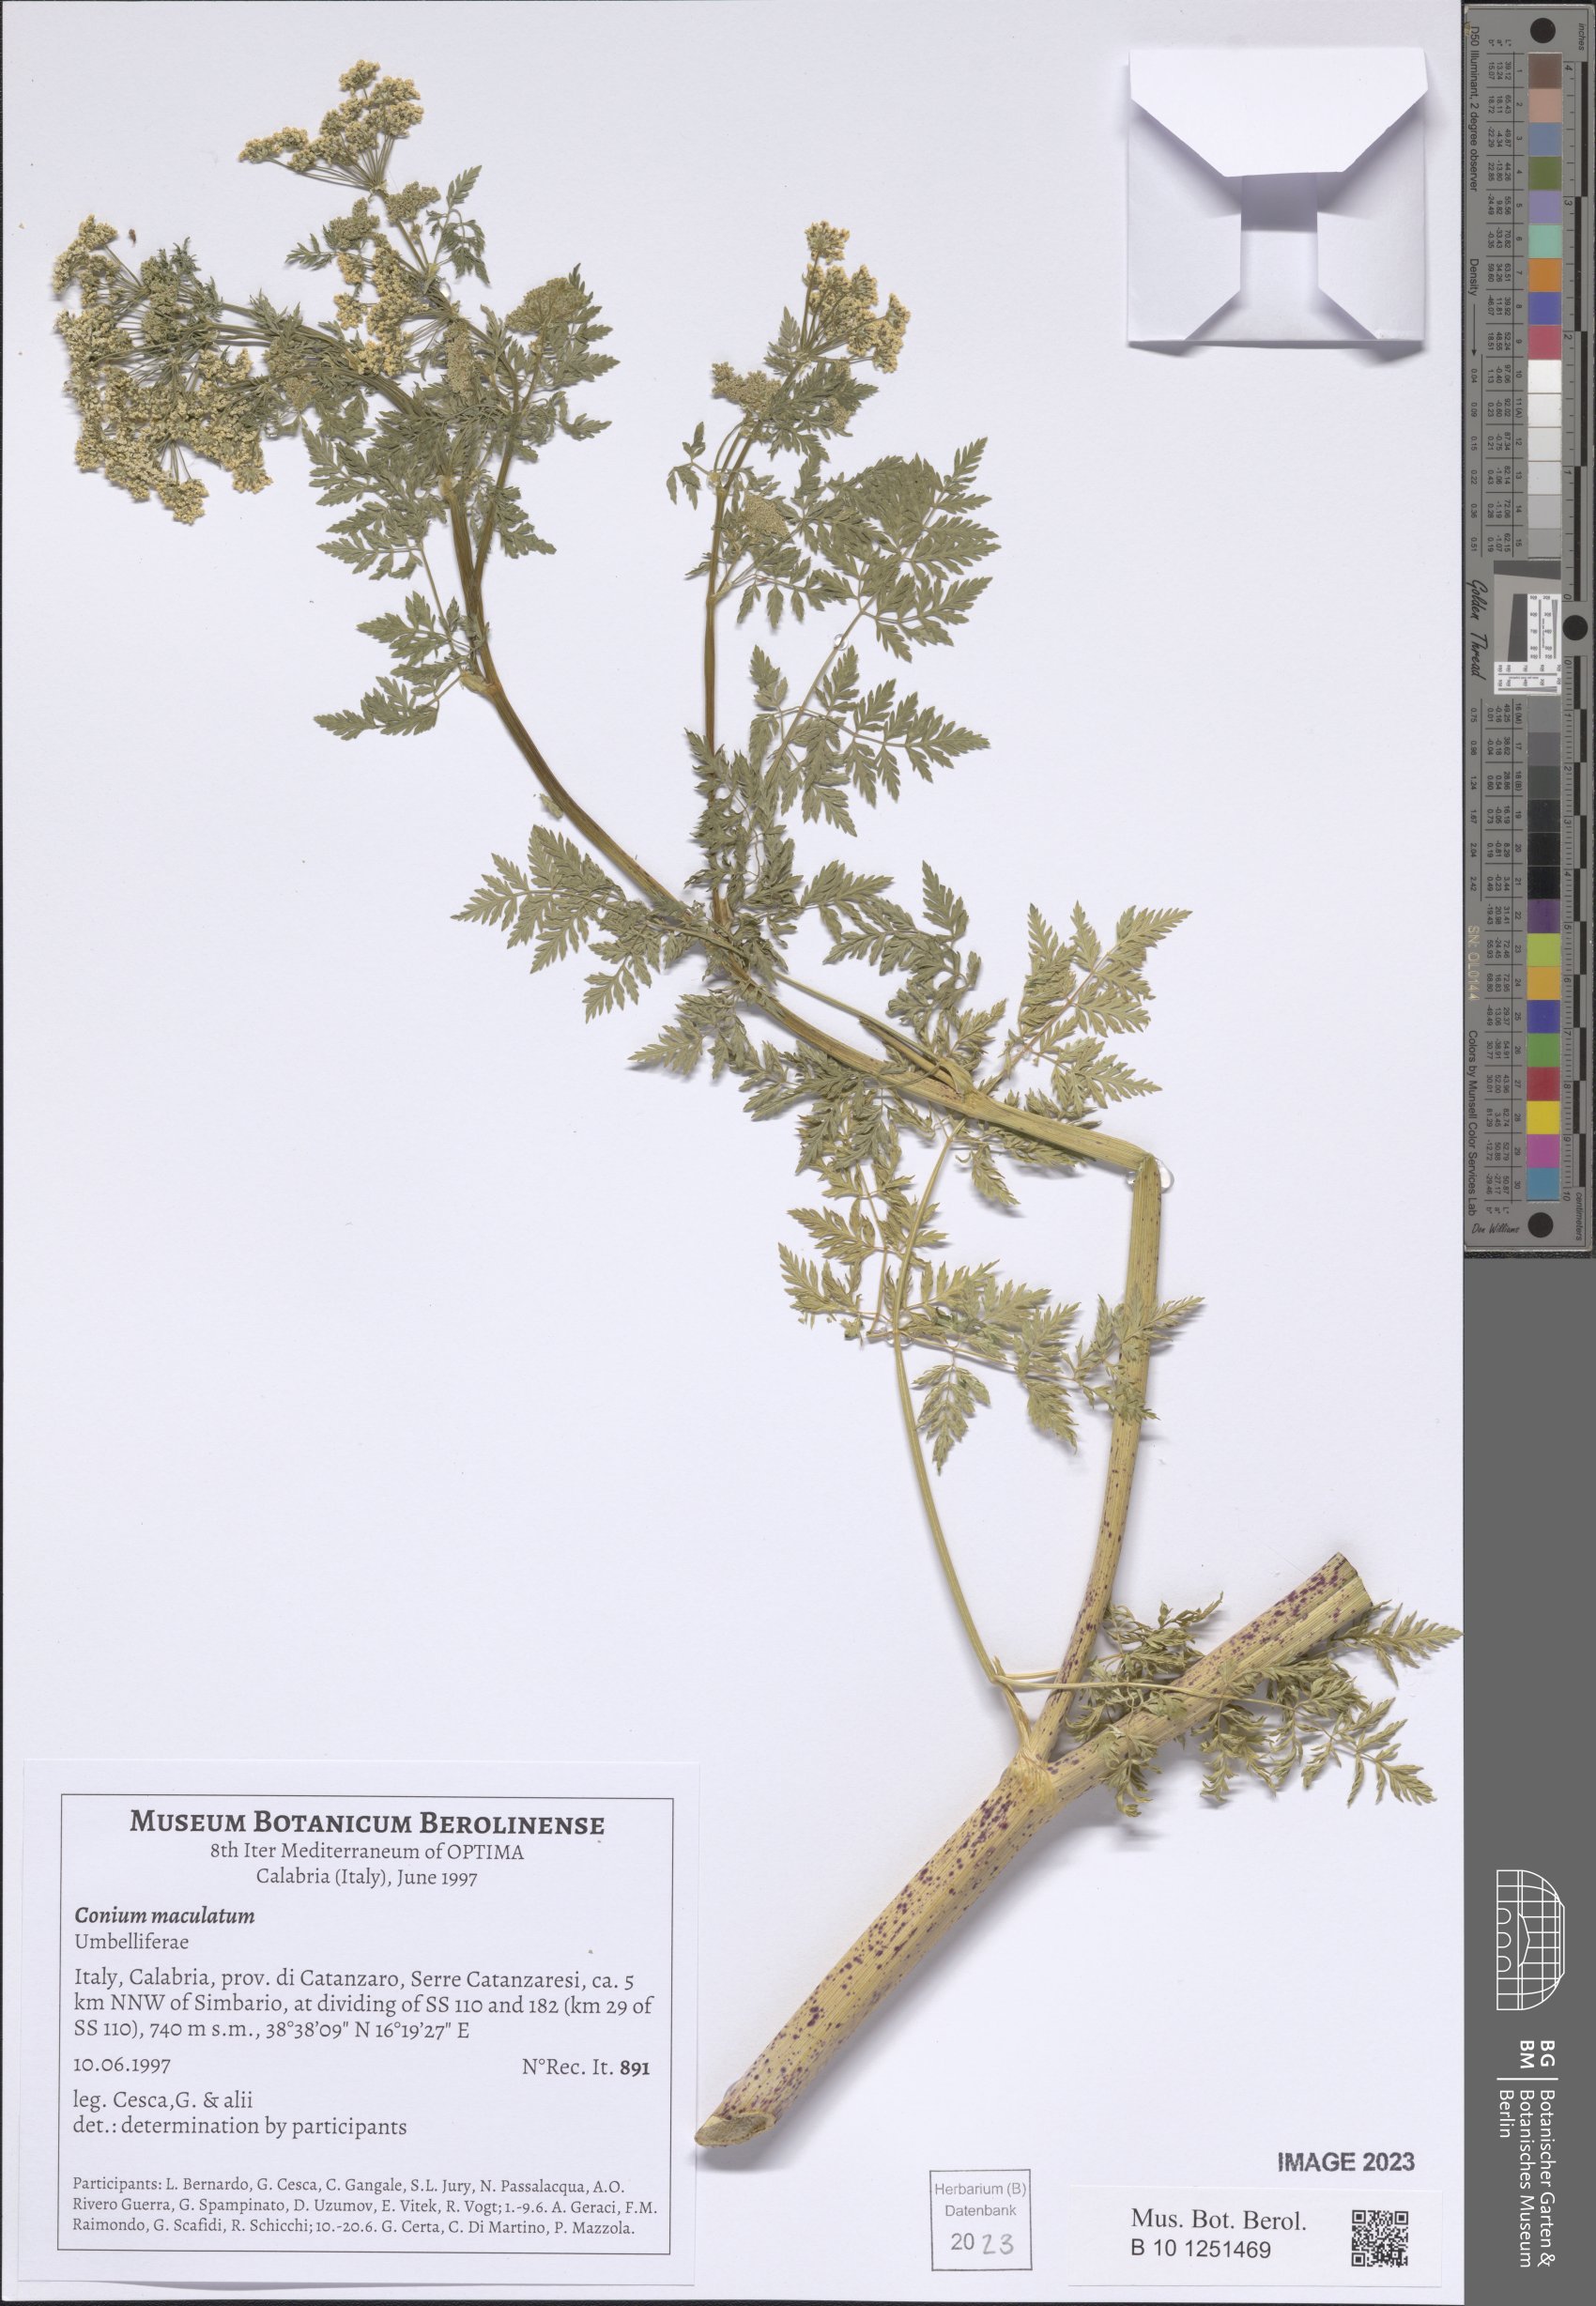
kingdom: Plantae
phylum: Tracheophyta
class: Magnoliopsida
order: Apiales
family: Apiaceae
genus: Conium
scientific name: Conium maculatum
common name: Hemlock
